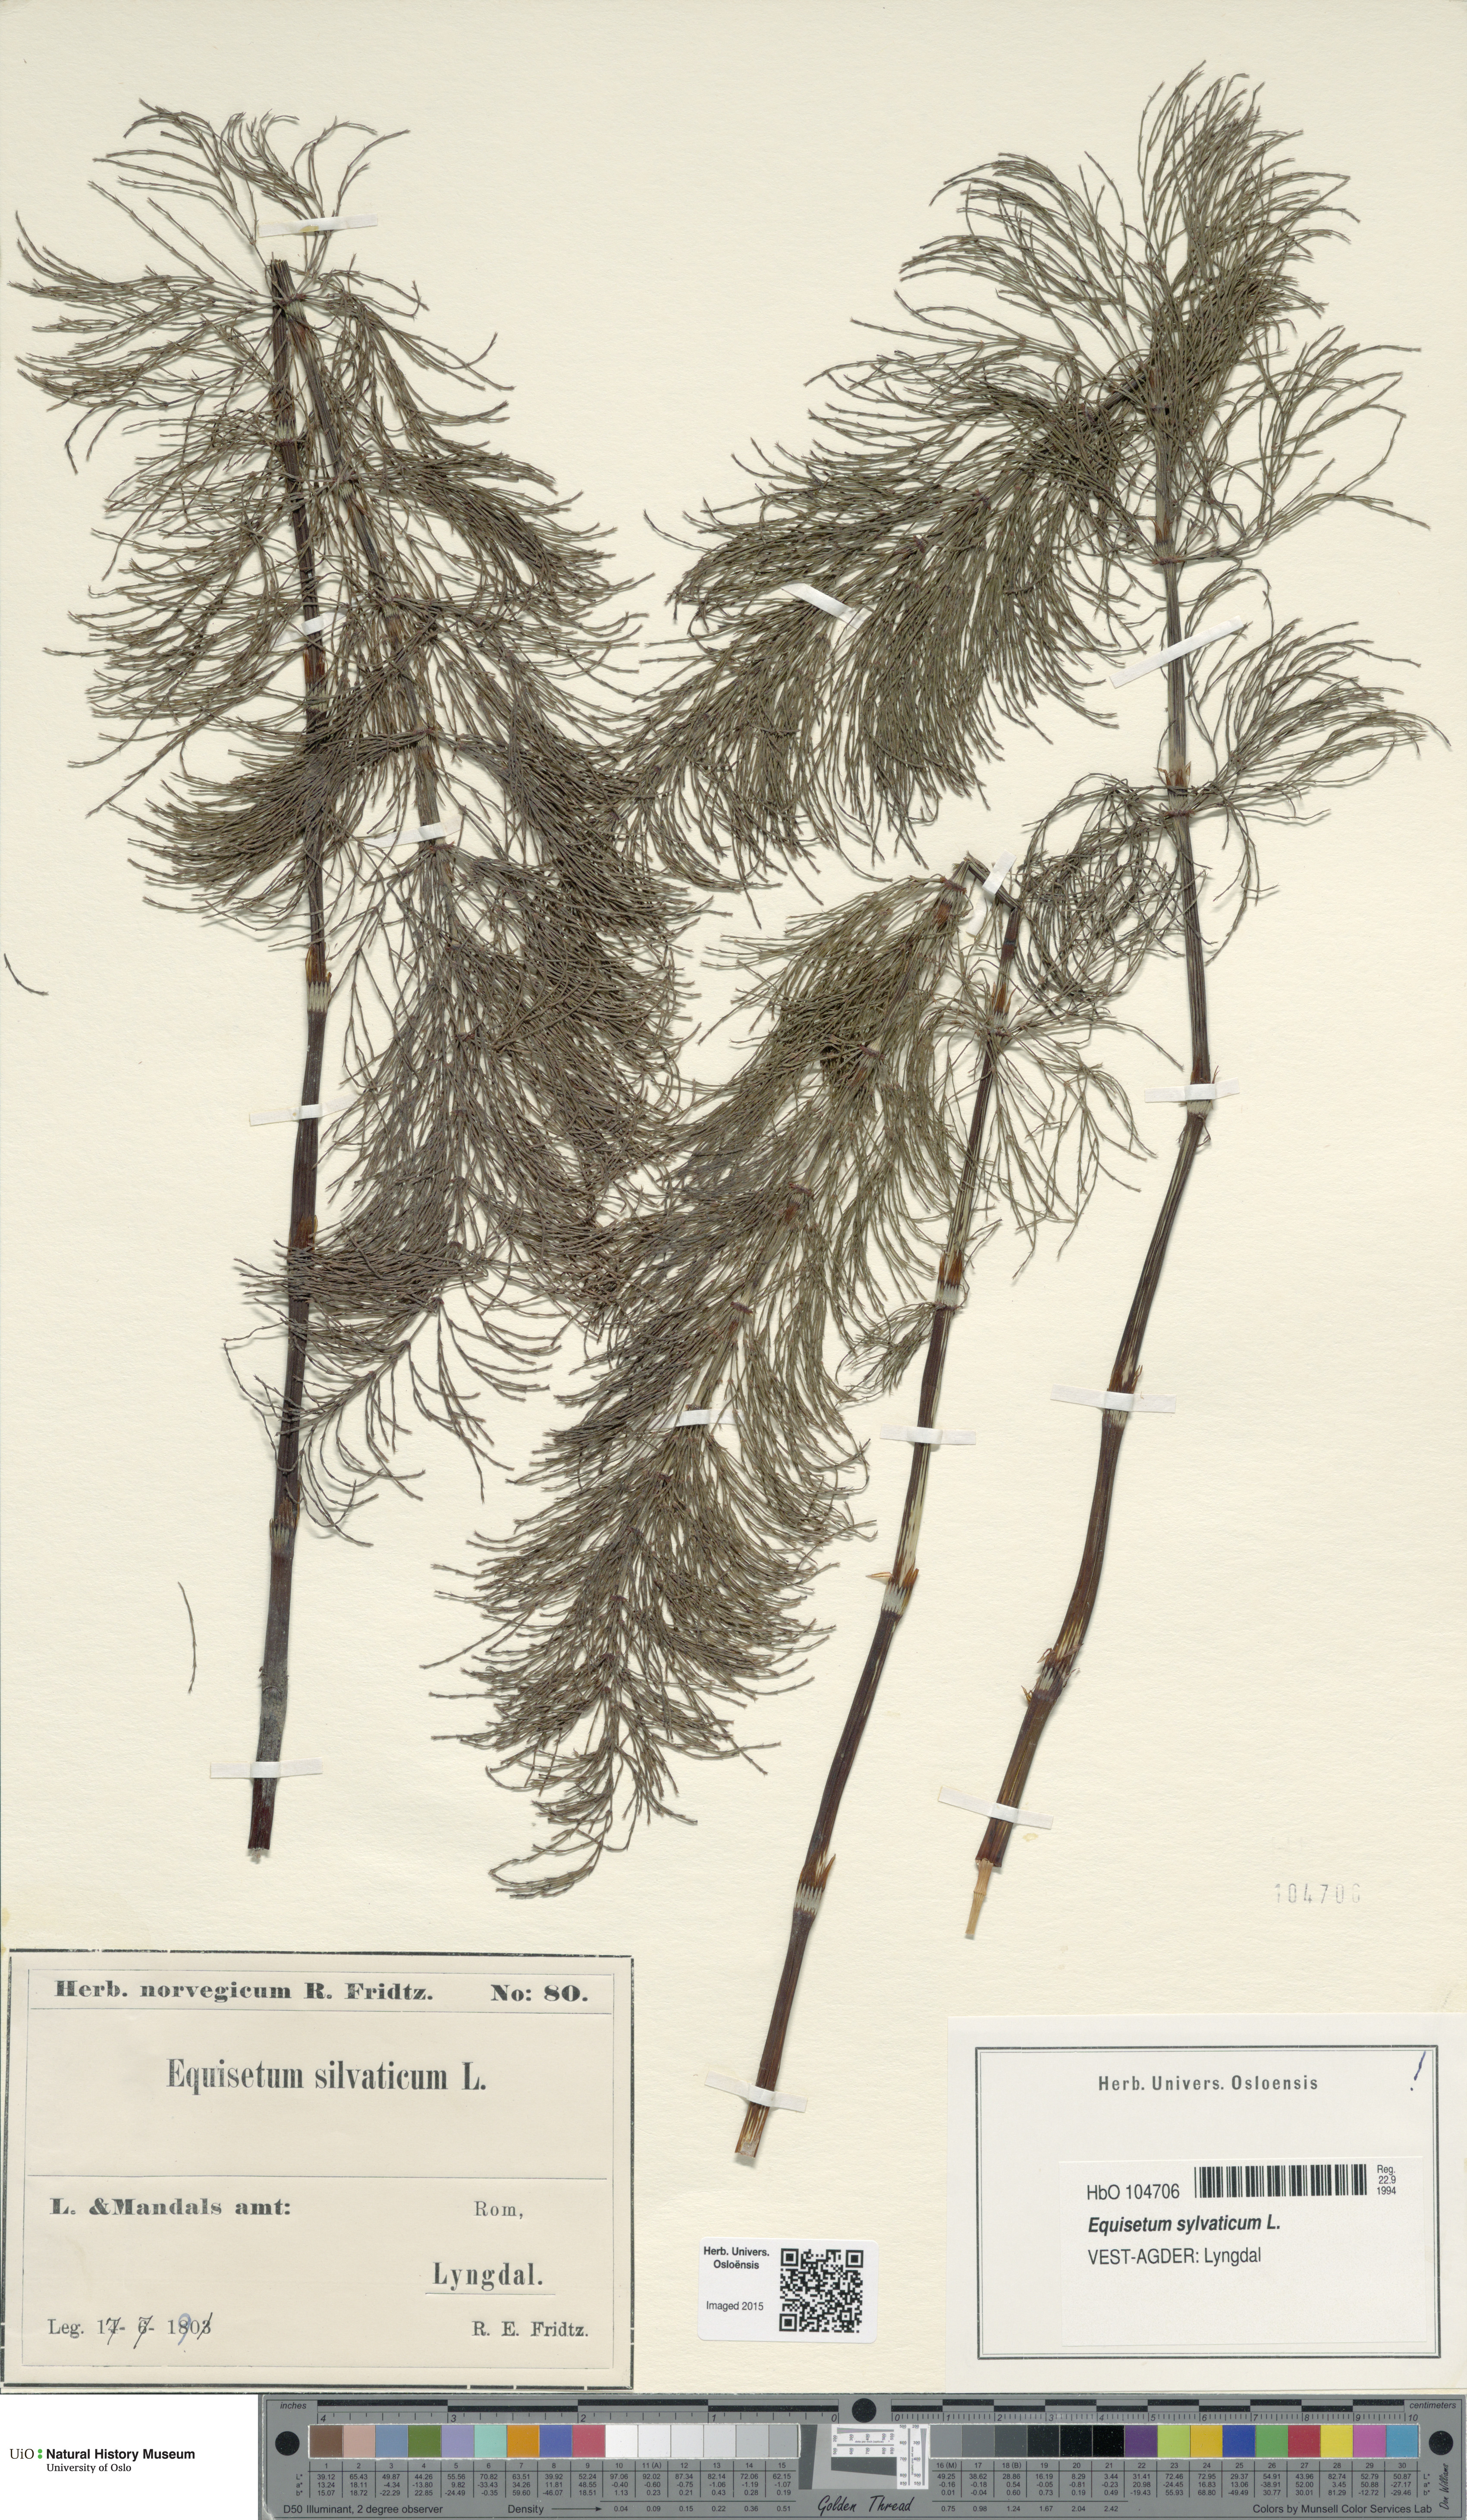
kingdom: Plantae
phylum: Tracheophyta
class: Polypodiopsida
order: Equisetales
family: Equisetaceae
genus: Equisetum
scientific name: Equisetum sylvaticum
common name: Wood horsetail
